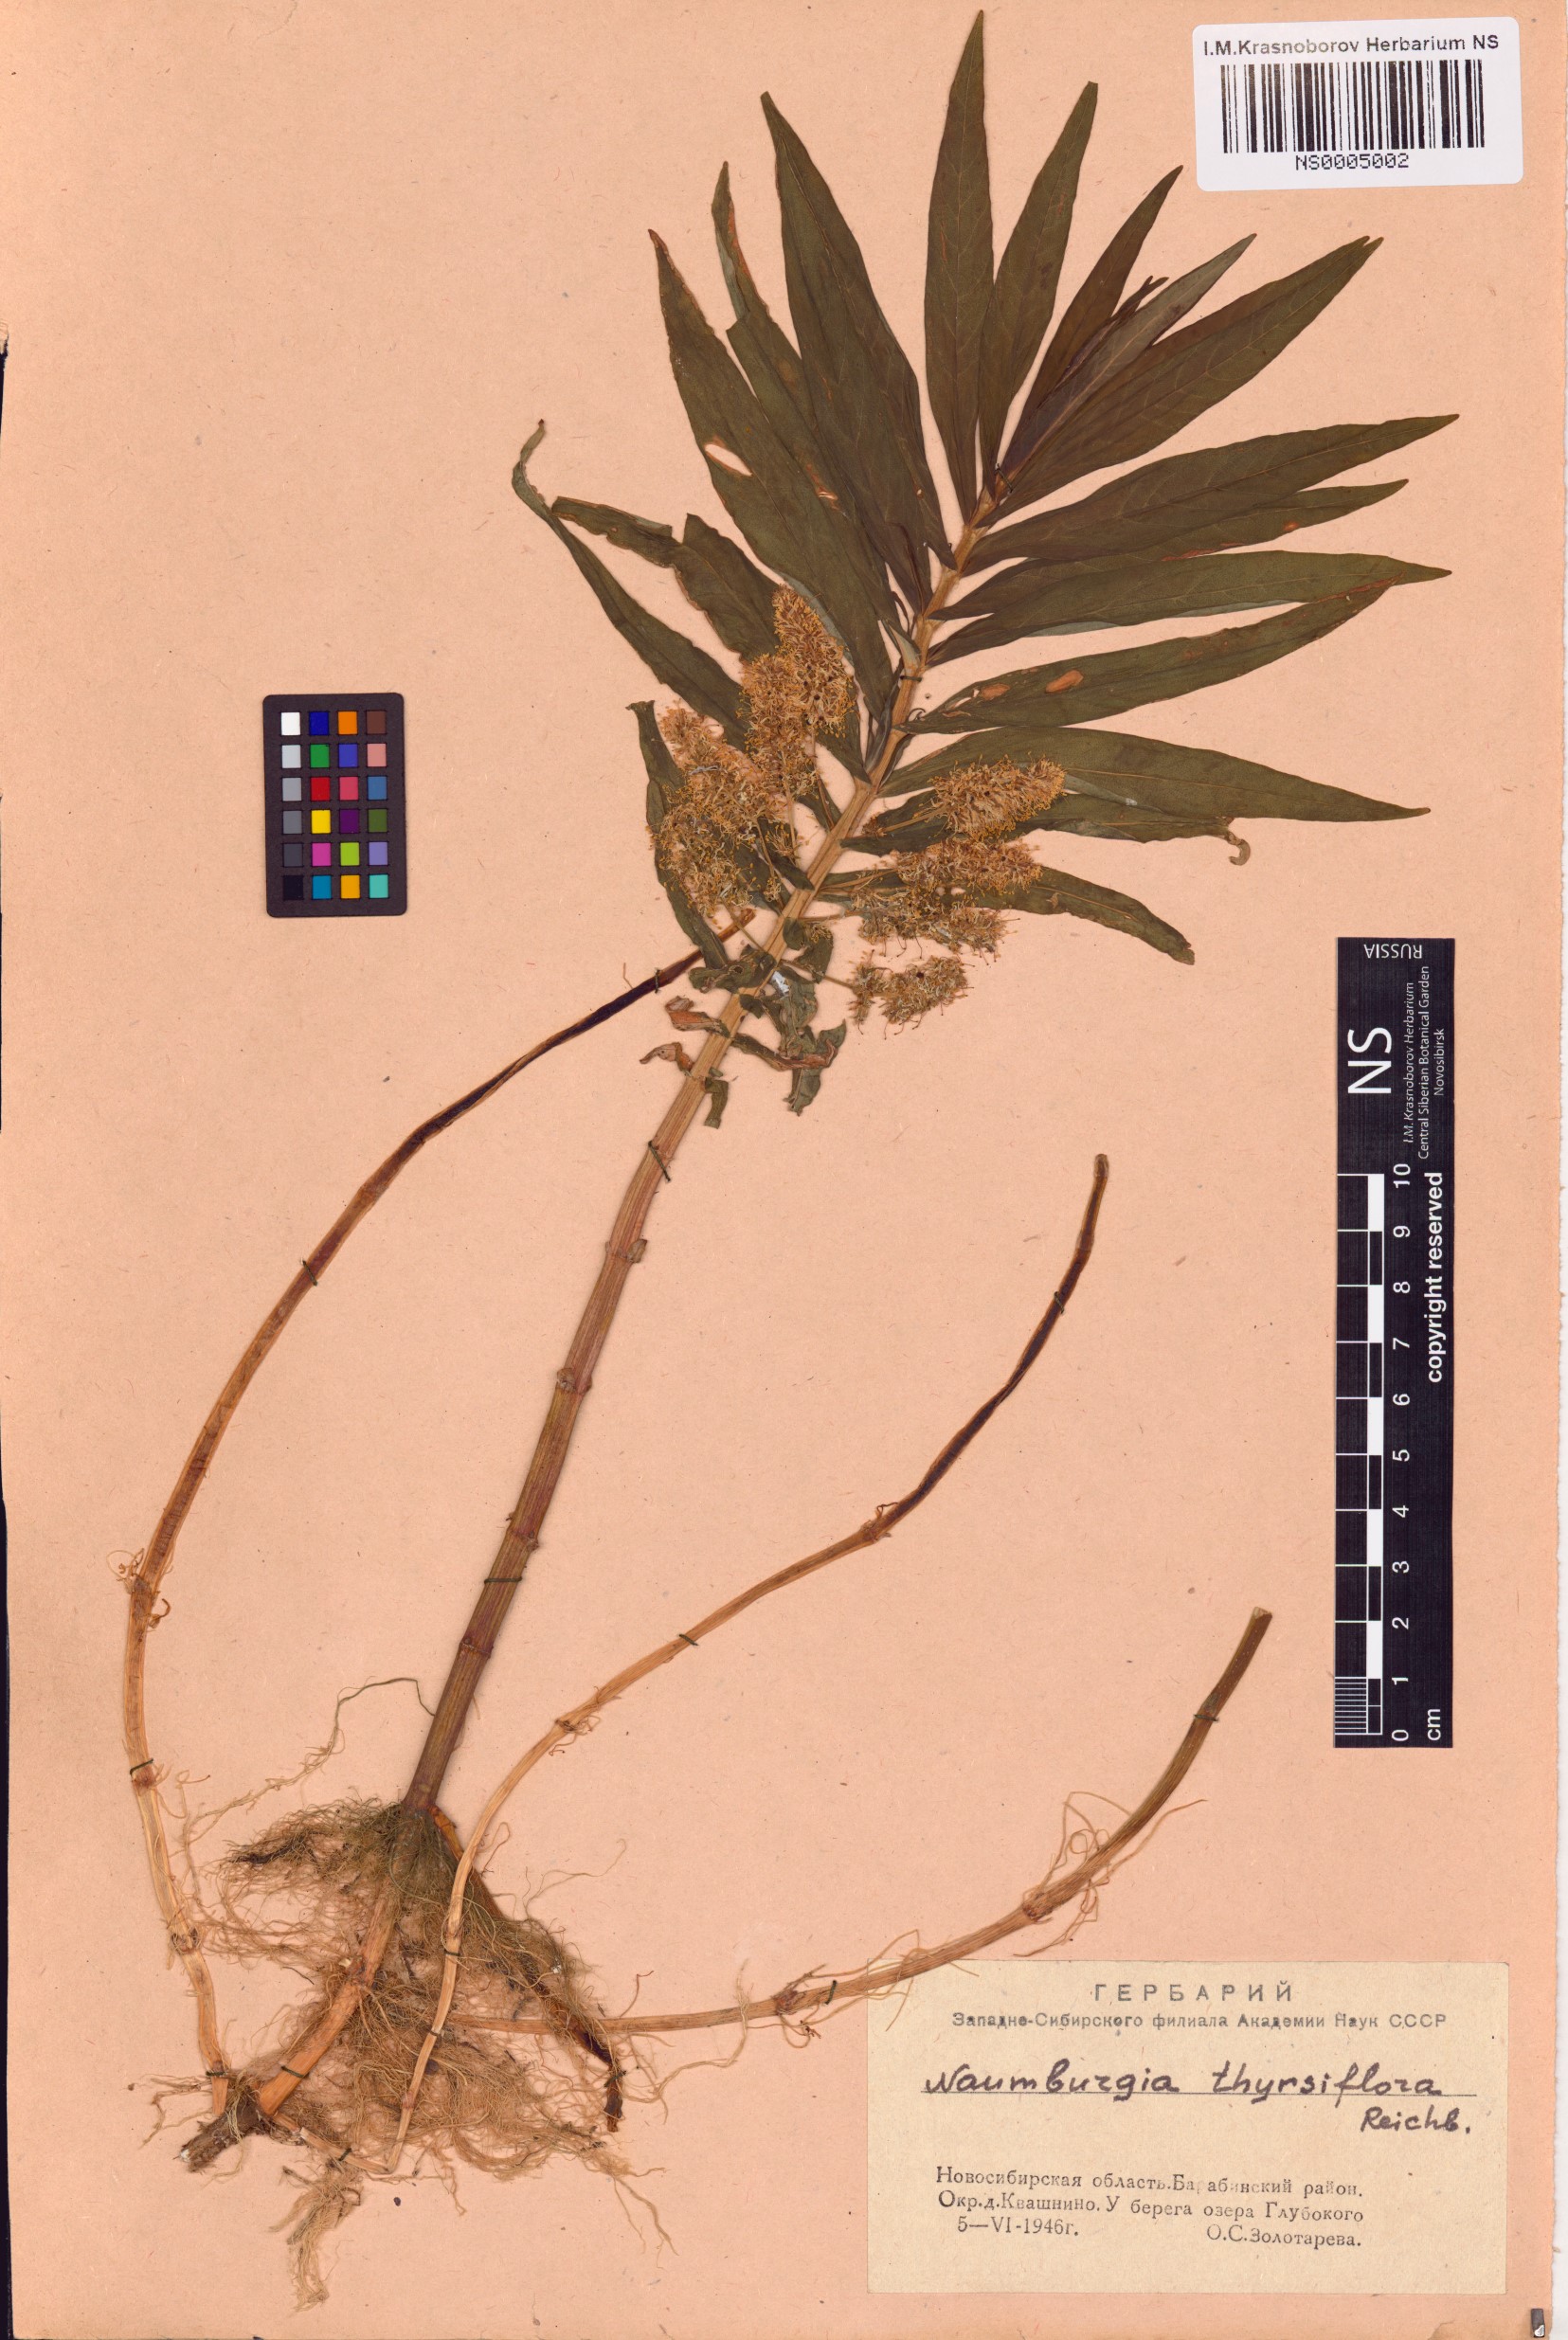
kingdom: Plantae
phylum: Tracheophyta
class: Magnoliopsida
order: Ericales
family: Primulaceae
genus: Lysimachia
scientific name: Lysimachia thyrsiflora
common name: Tufted loosestrife
